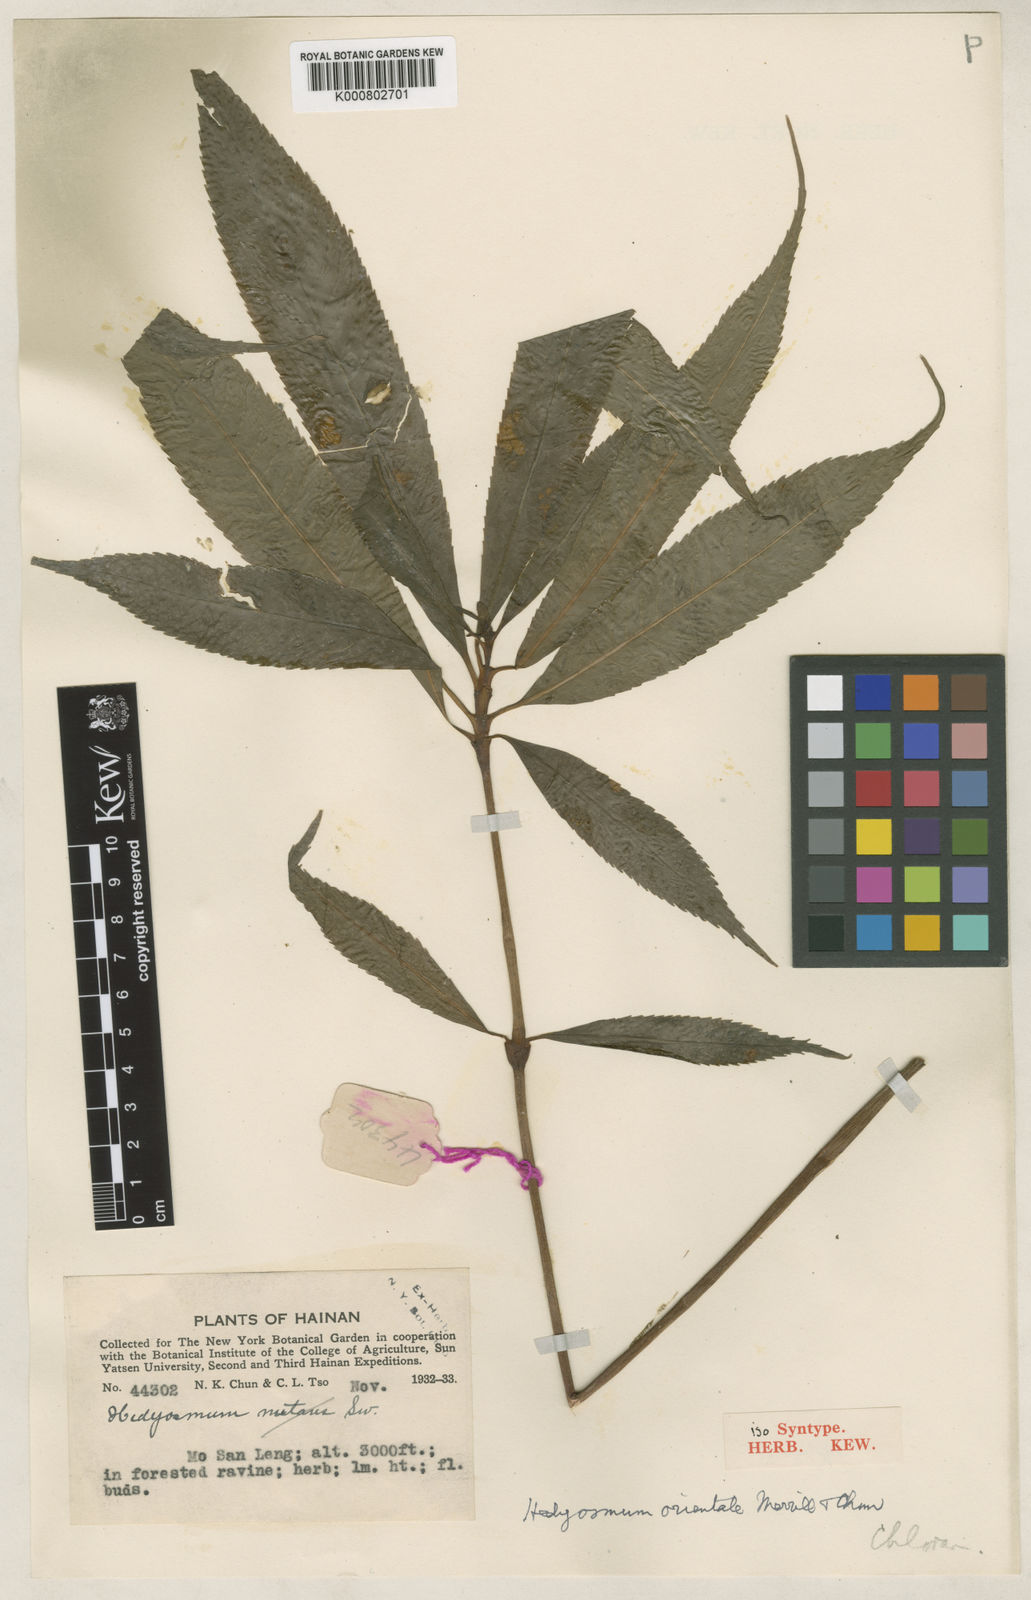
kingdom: Plantae
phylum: Tracheophyta
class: Magnoliopsida
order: Chloranthales
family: Chloranthaceae
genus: Hedyosmum
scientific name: Hedyosmum orientale
